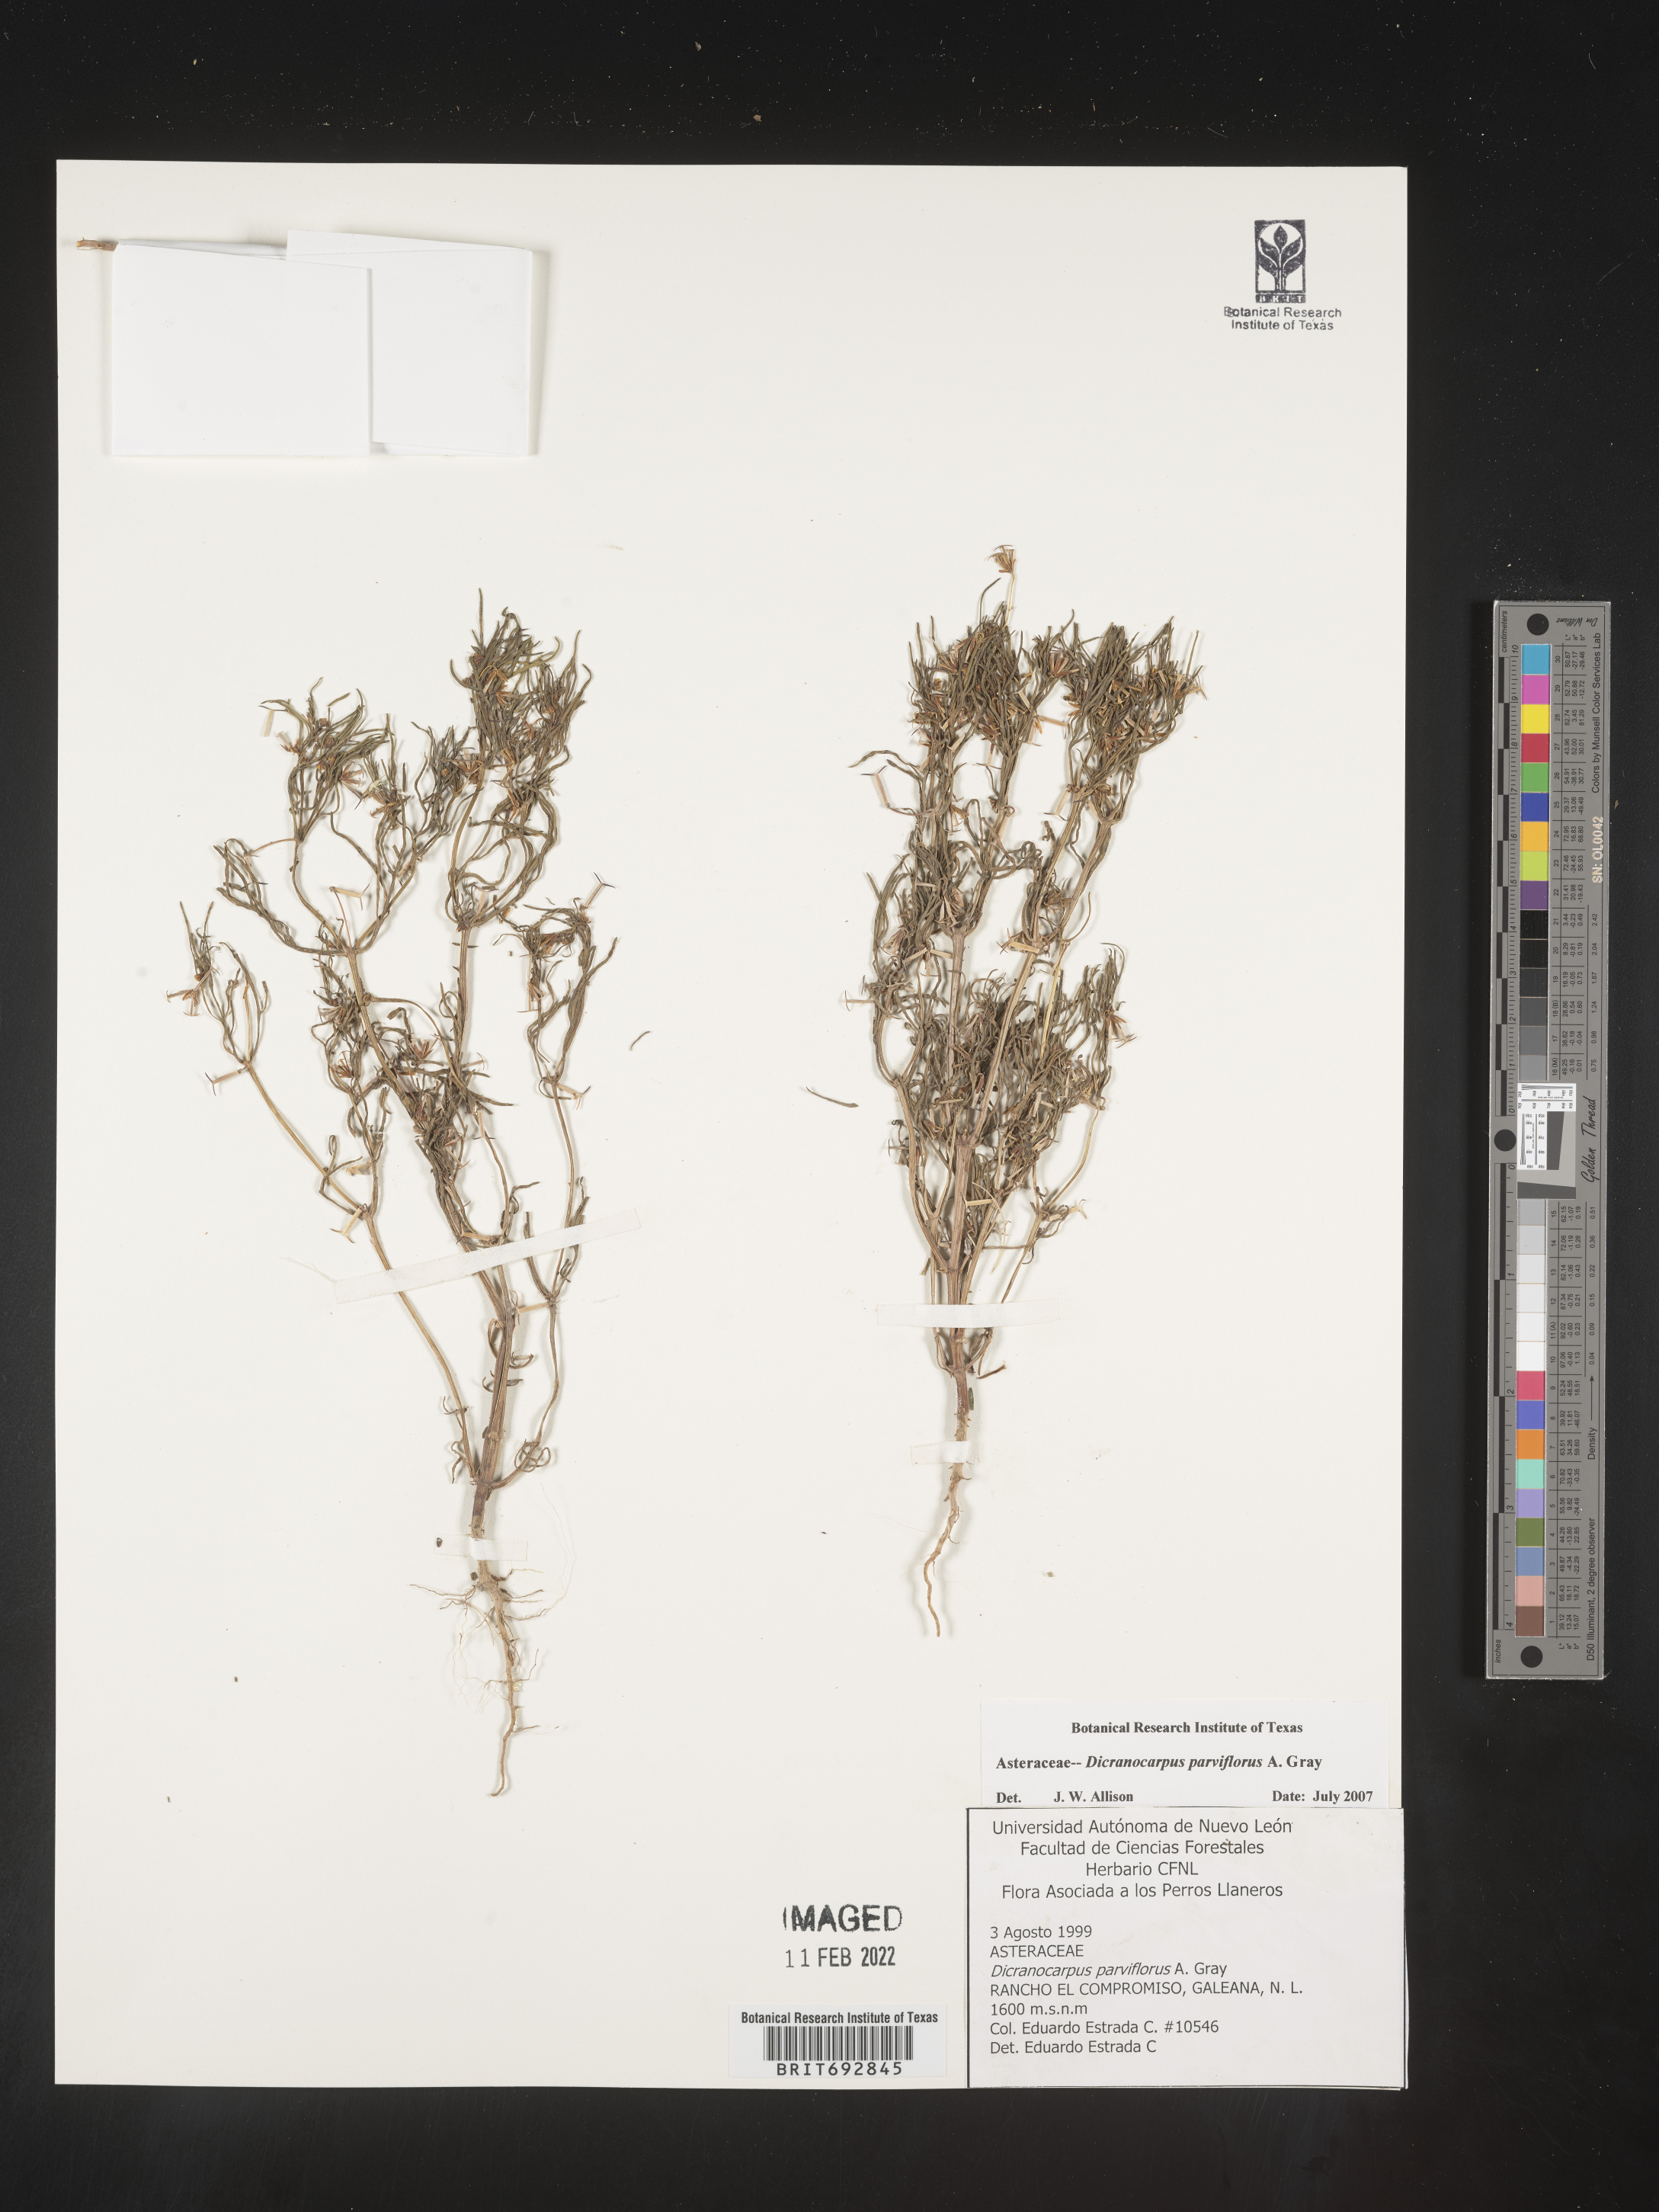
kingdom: Plantae
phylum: Tracheophyta
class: Magnoliopsida
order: Asterales
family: Asteraceae
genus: Dicranocarpus
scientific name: Dicranocarpus
